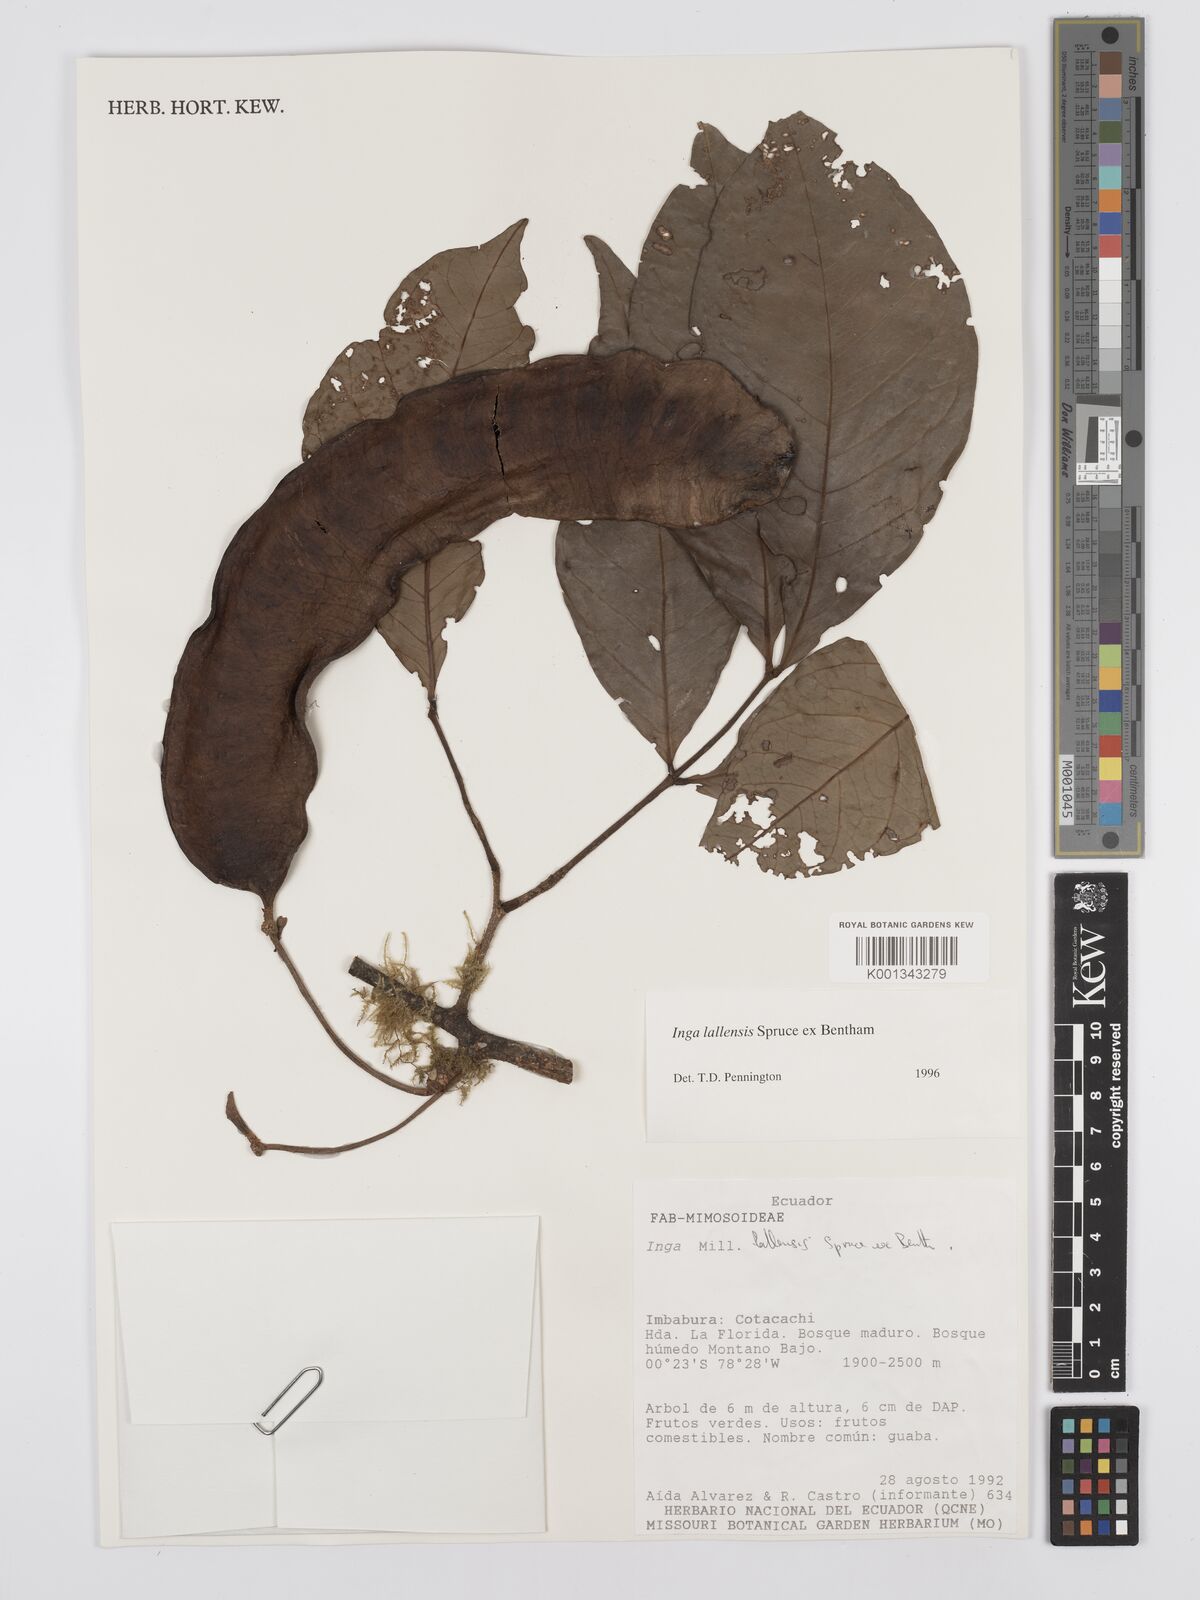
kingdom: Plantae
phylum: Tracheophyta
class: Magnoliopsida
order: Fabales
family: Fabaceae
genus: Inga
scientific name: Inga lallensis
